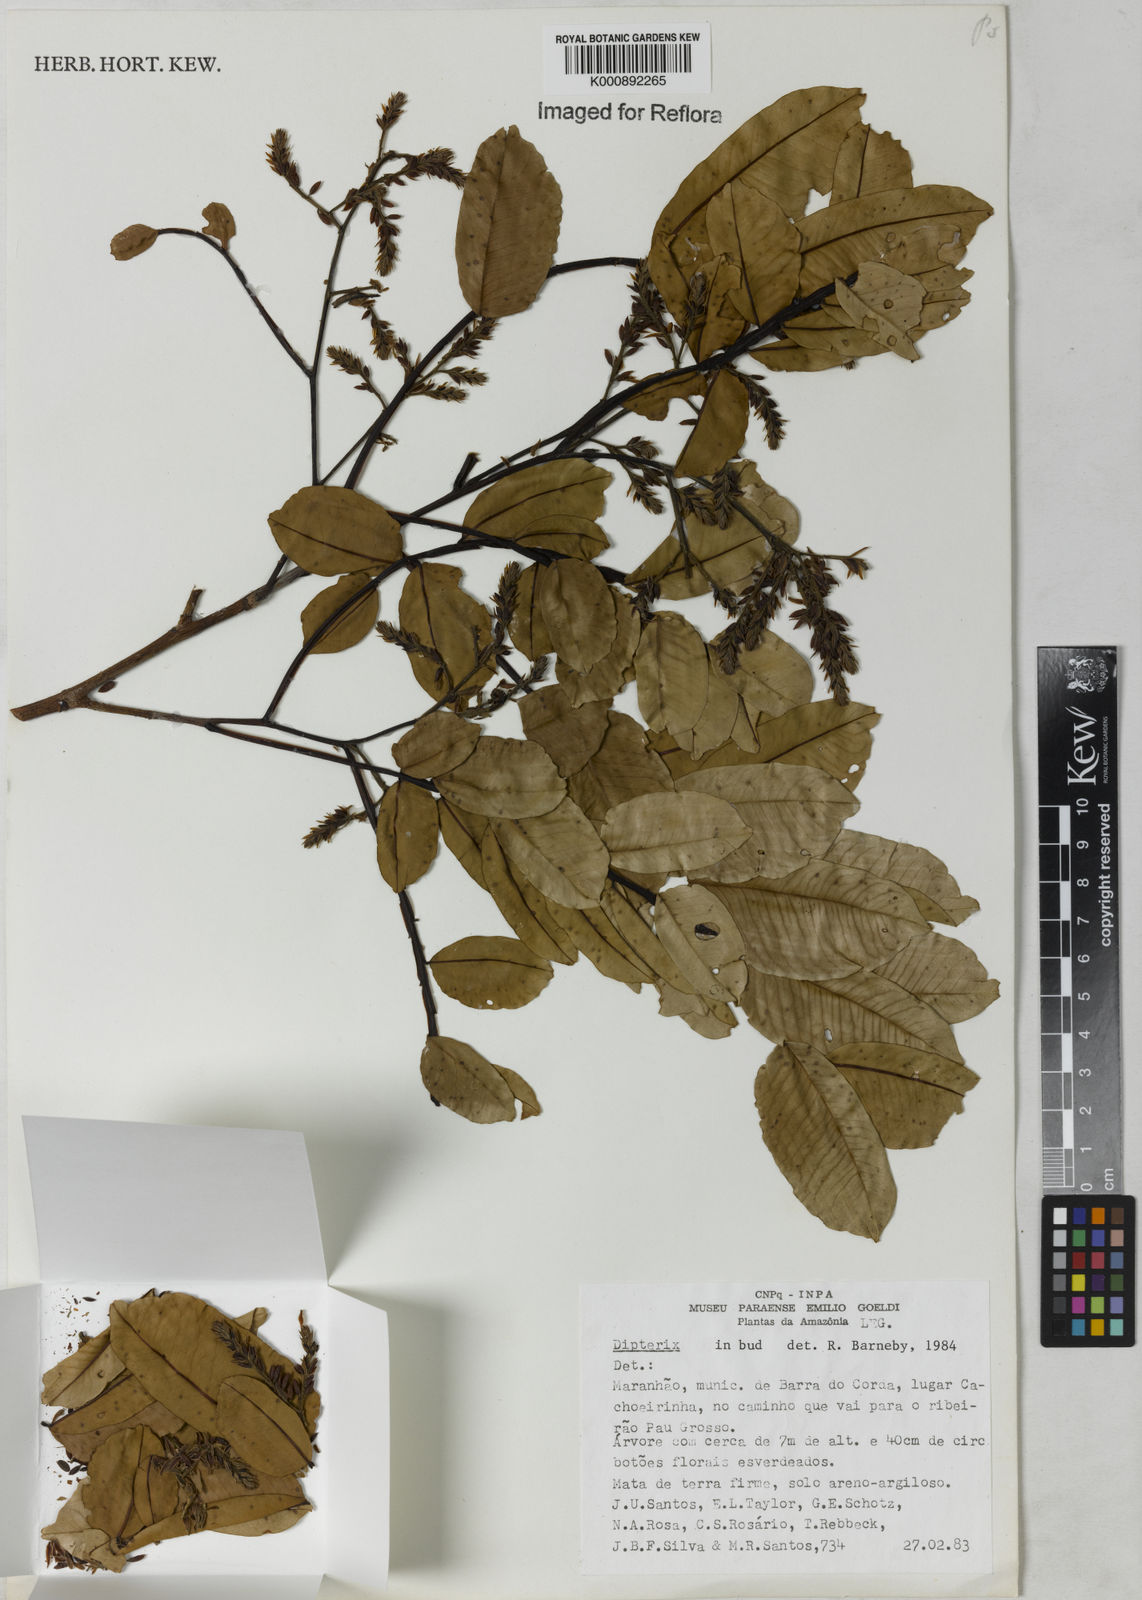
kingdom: Plantae
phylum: Tracheophyta
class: Magnoliopsida
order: Fabales
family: Fabaceae
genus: Dipteryx
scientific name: Dipteryx
